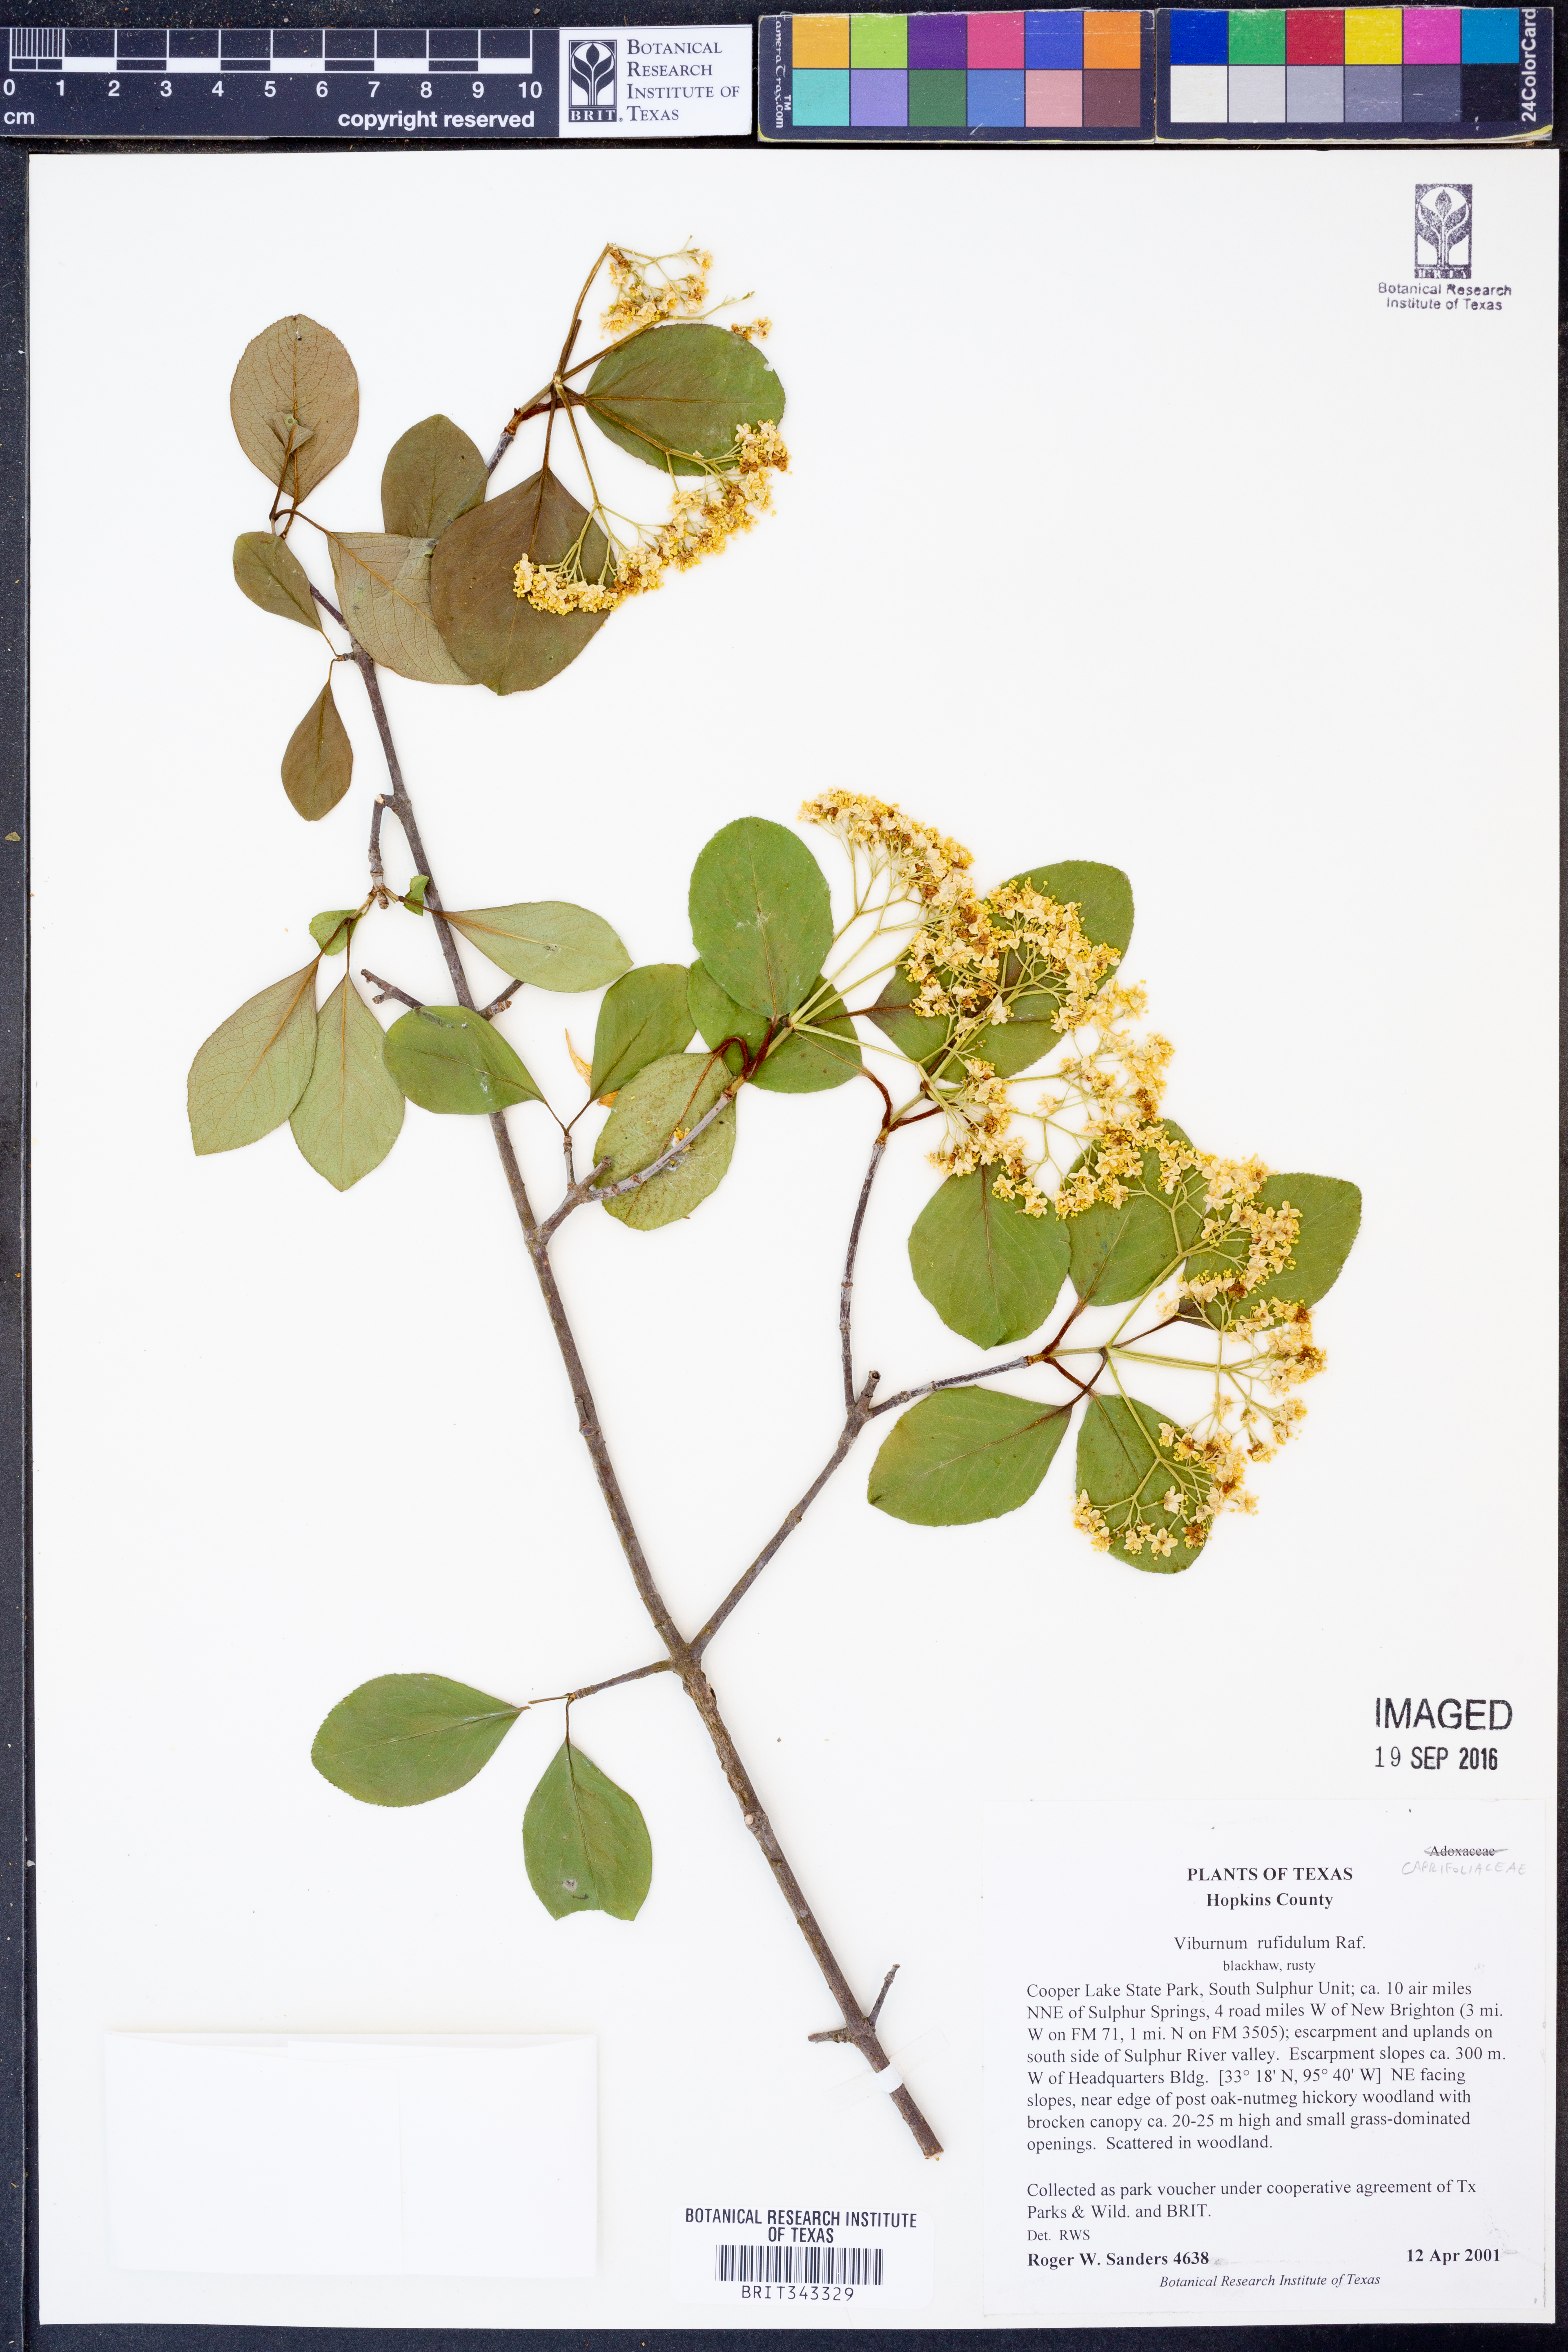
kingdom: Plantae
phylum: Tracheophyta
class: Magnoliopsida
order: Dipsacales
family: Viburnaceae
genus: Viburnum
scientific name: Viburnum rufidulum
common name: Blue haw
